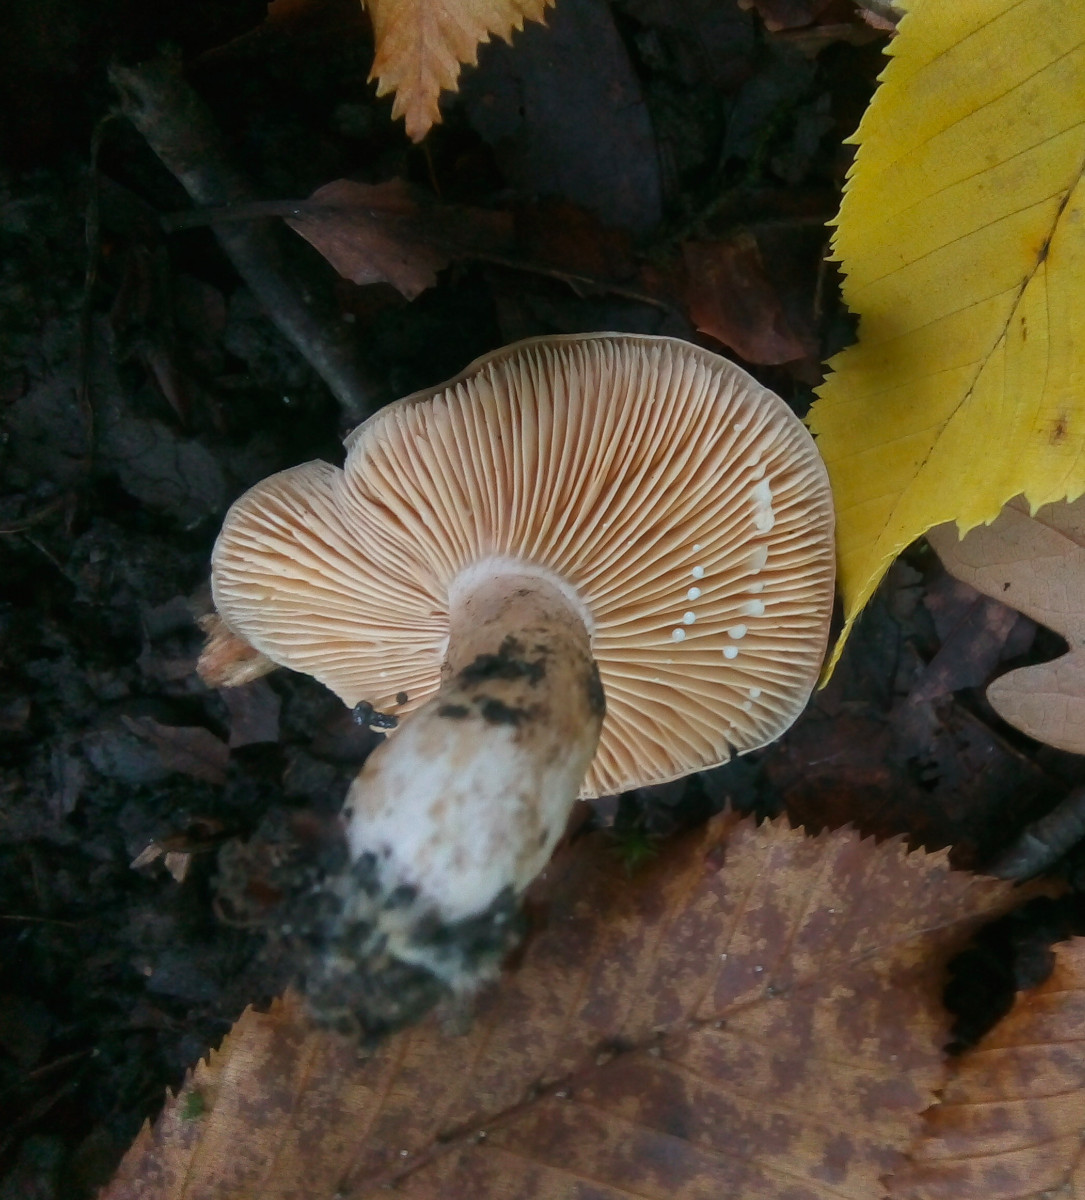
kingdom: Fungi
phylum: Basidiomycota
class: Agaricomycetes
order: Russulales
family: Russulaceae
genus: Lactarius
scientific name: Lactarius circellatus
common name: avnbøg-mælkehat
